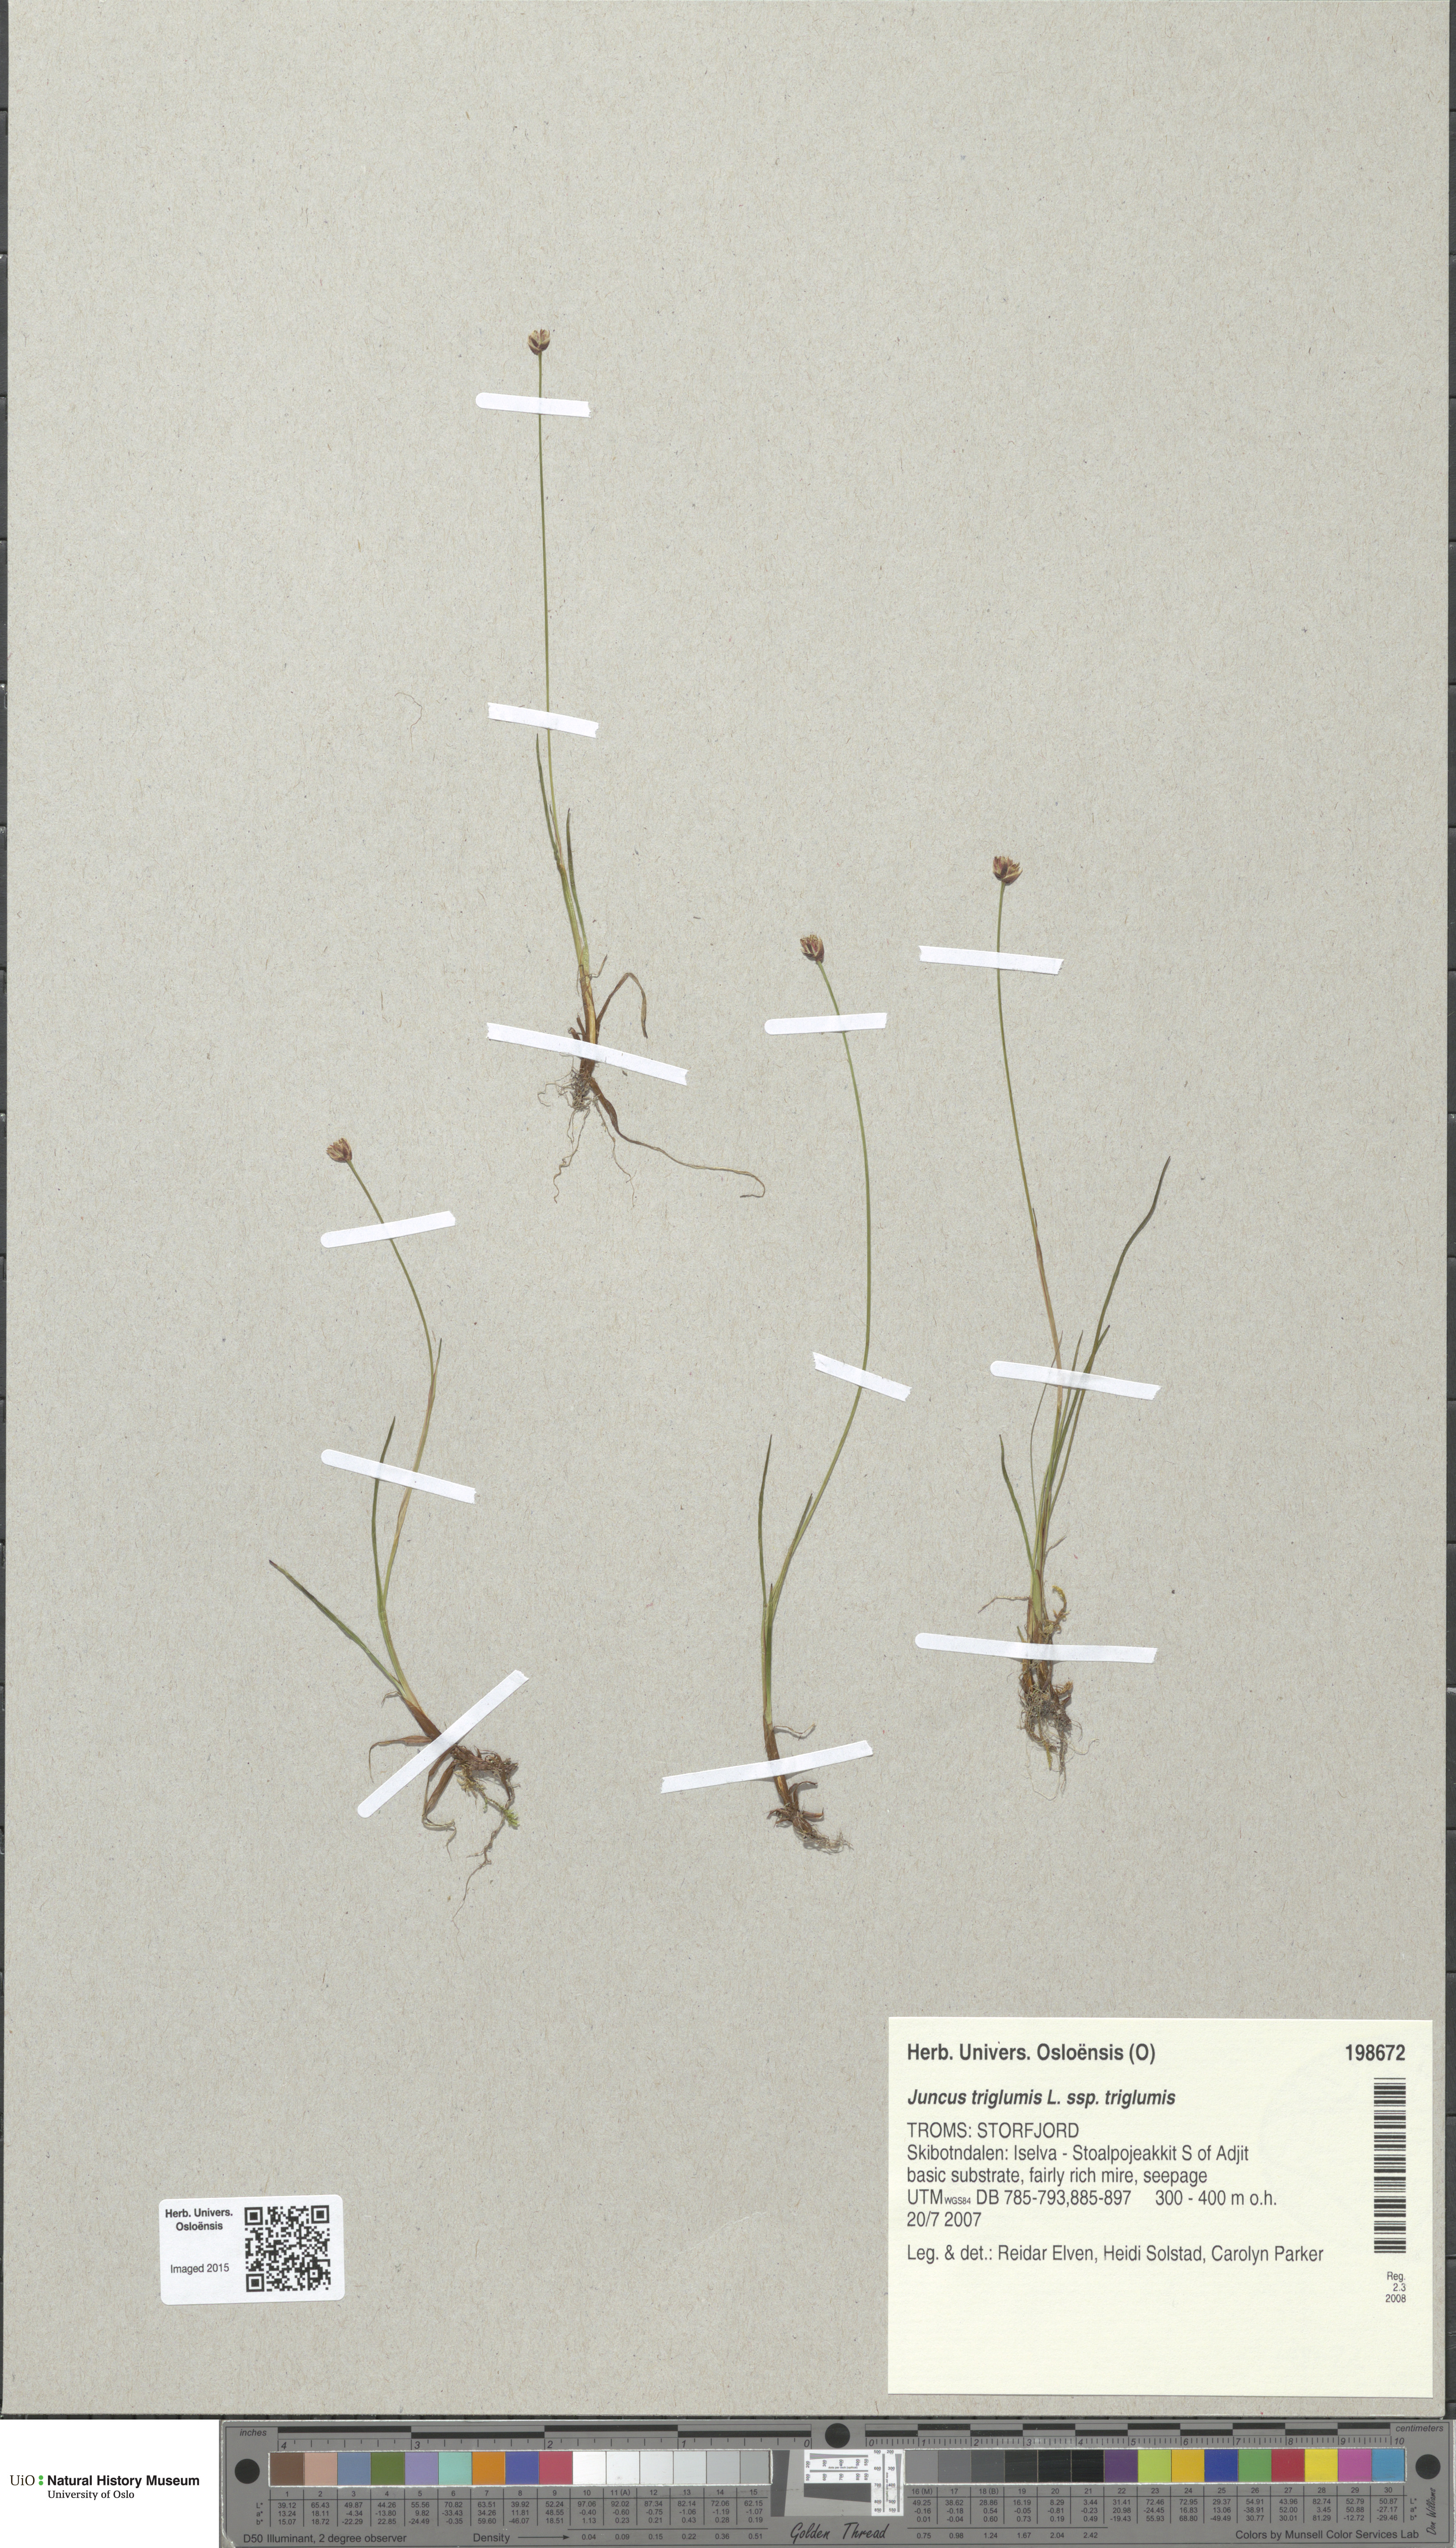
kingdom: Plantae
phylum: Tracheophyta
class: Liliopsida
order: Poales
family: Juncaceae
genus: Juncus
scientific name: Juncus triglumis
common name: Three-flowered rush
